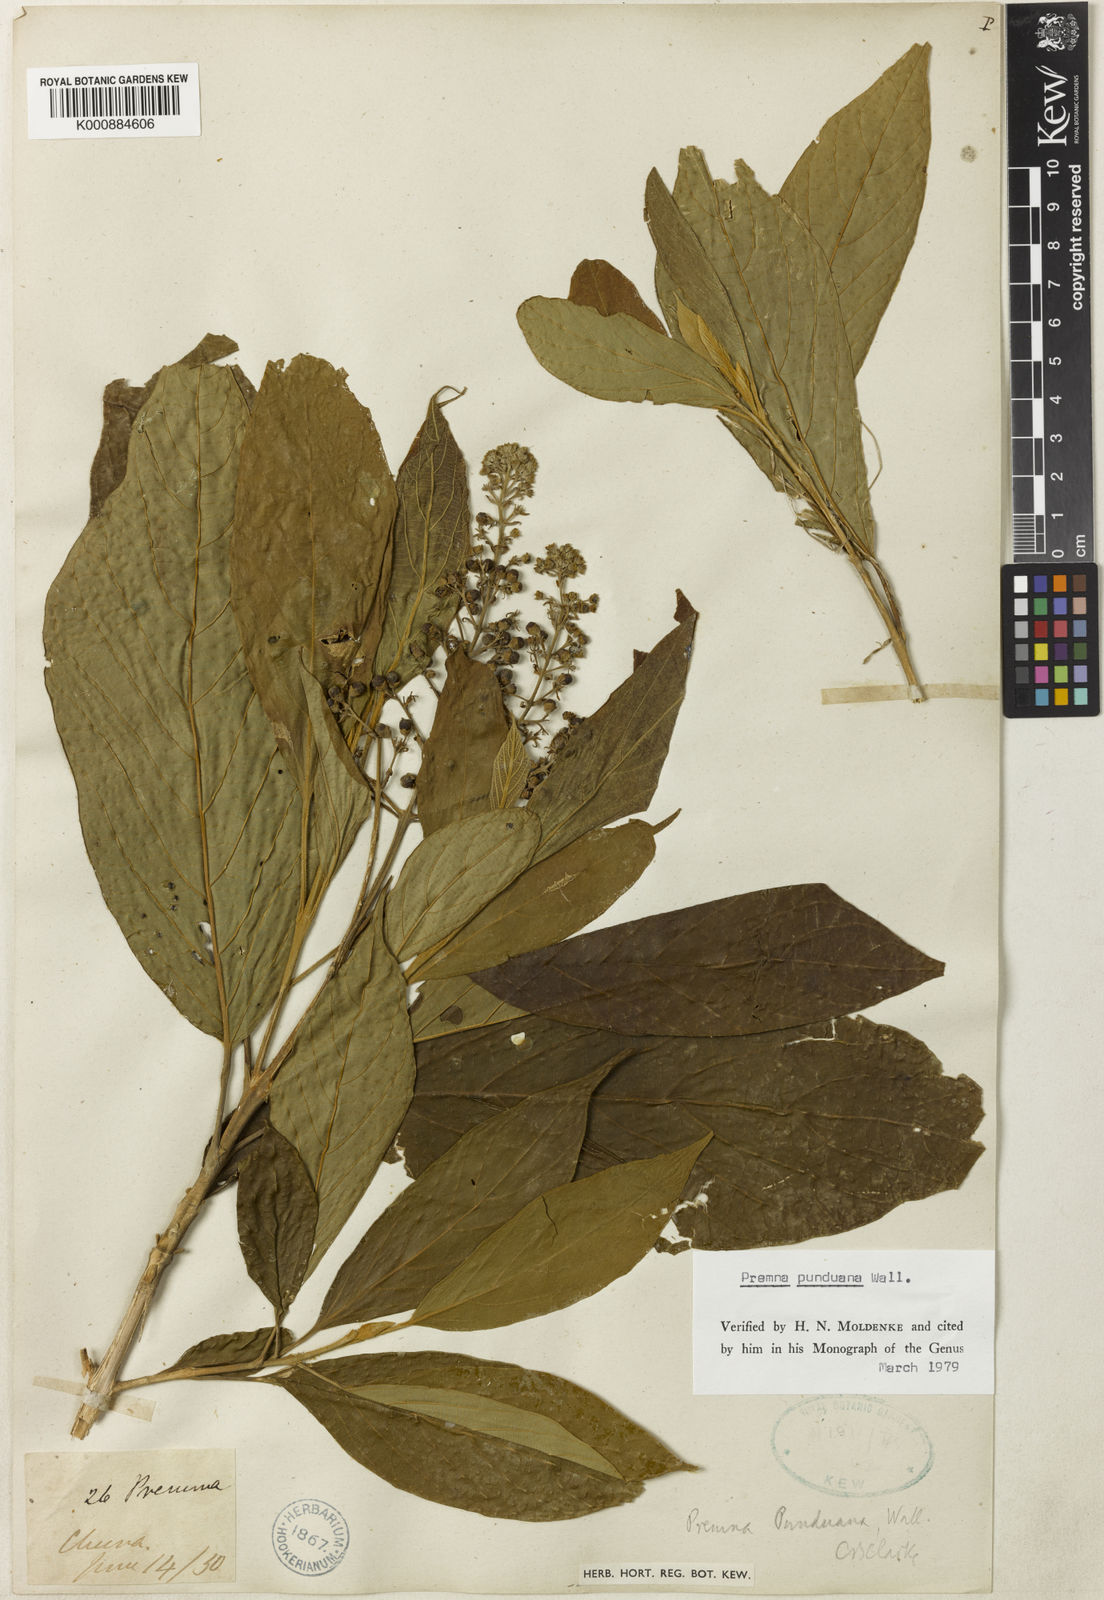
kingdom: Plantae
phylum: Tracheophyta
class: Magnoliopsida
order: Lamiales
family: Lamiaceae
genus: Premna
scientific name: Premna
